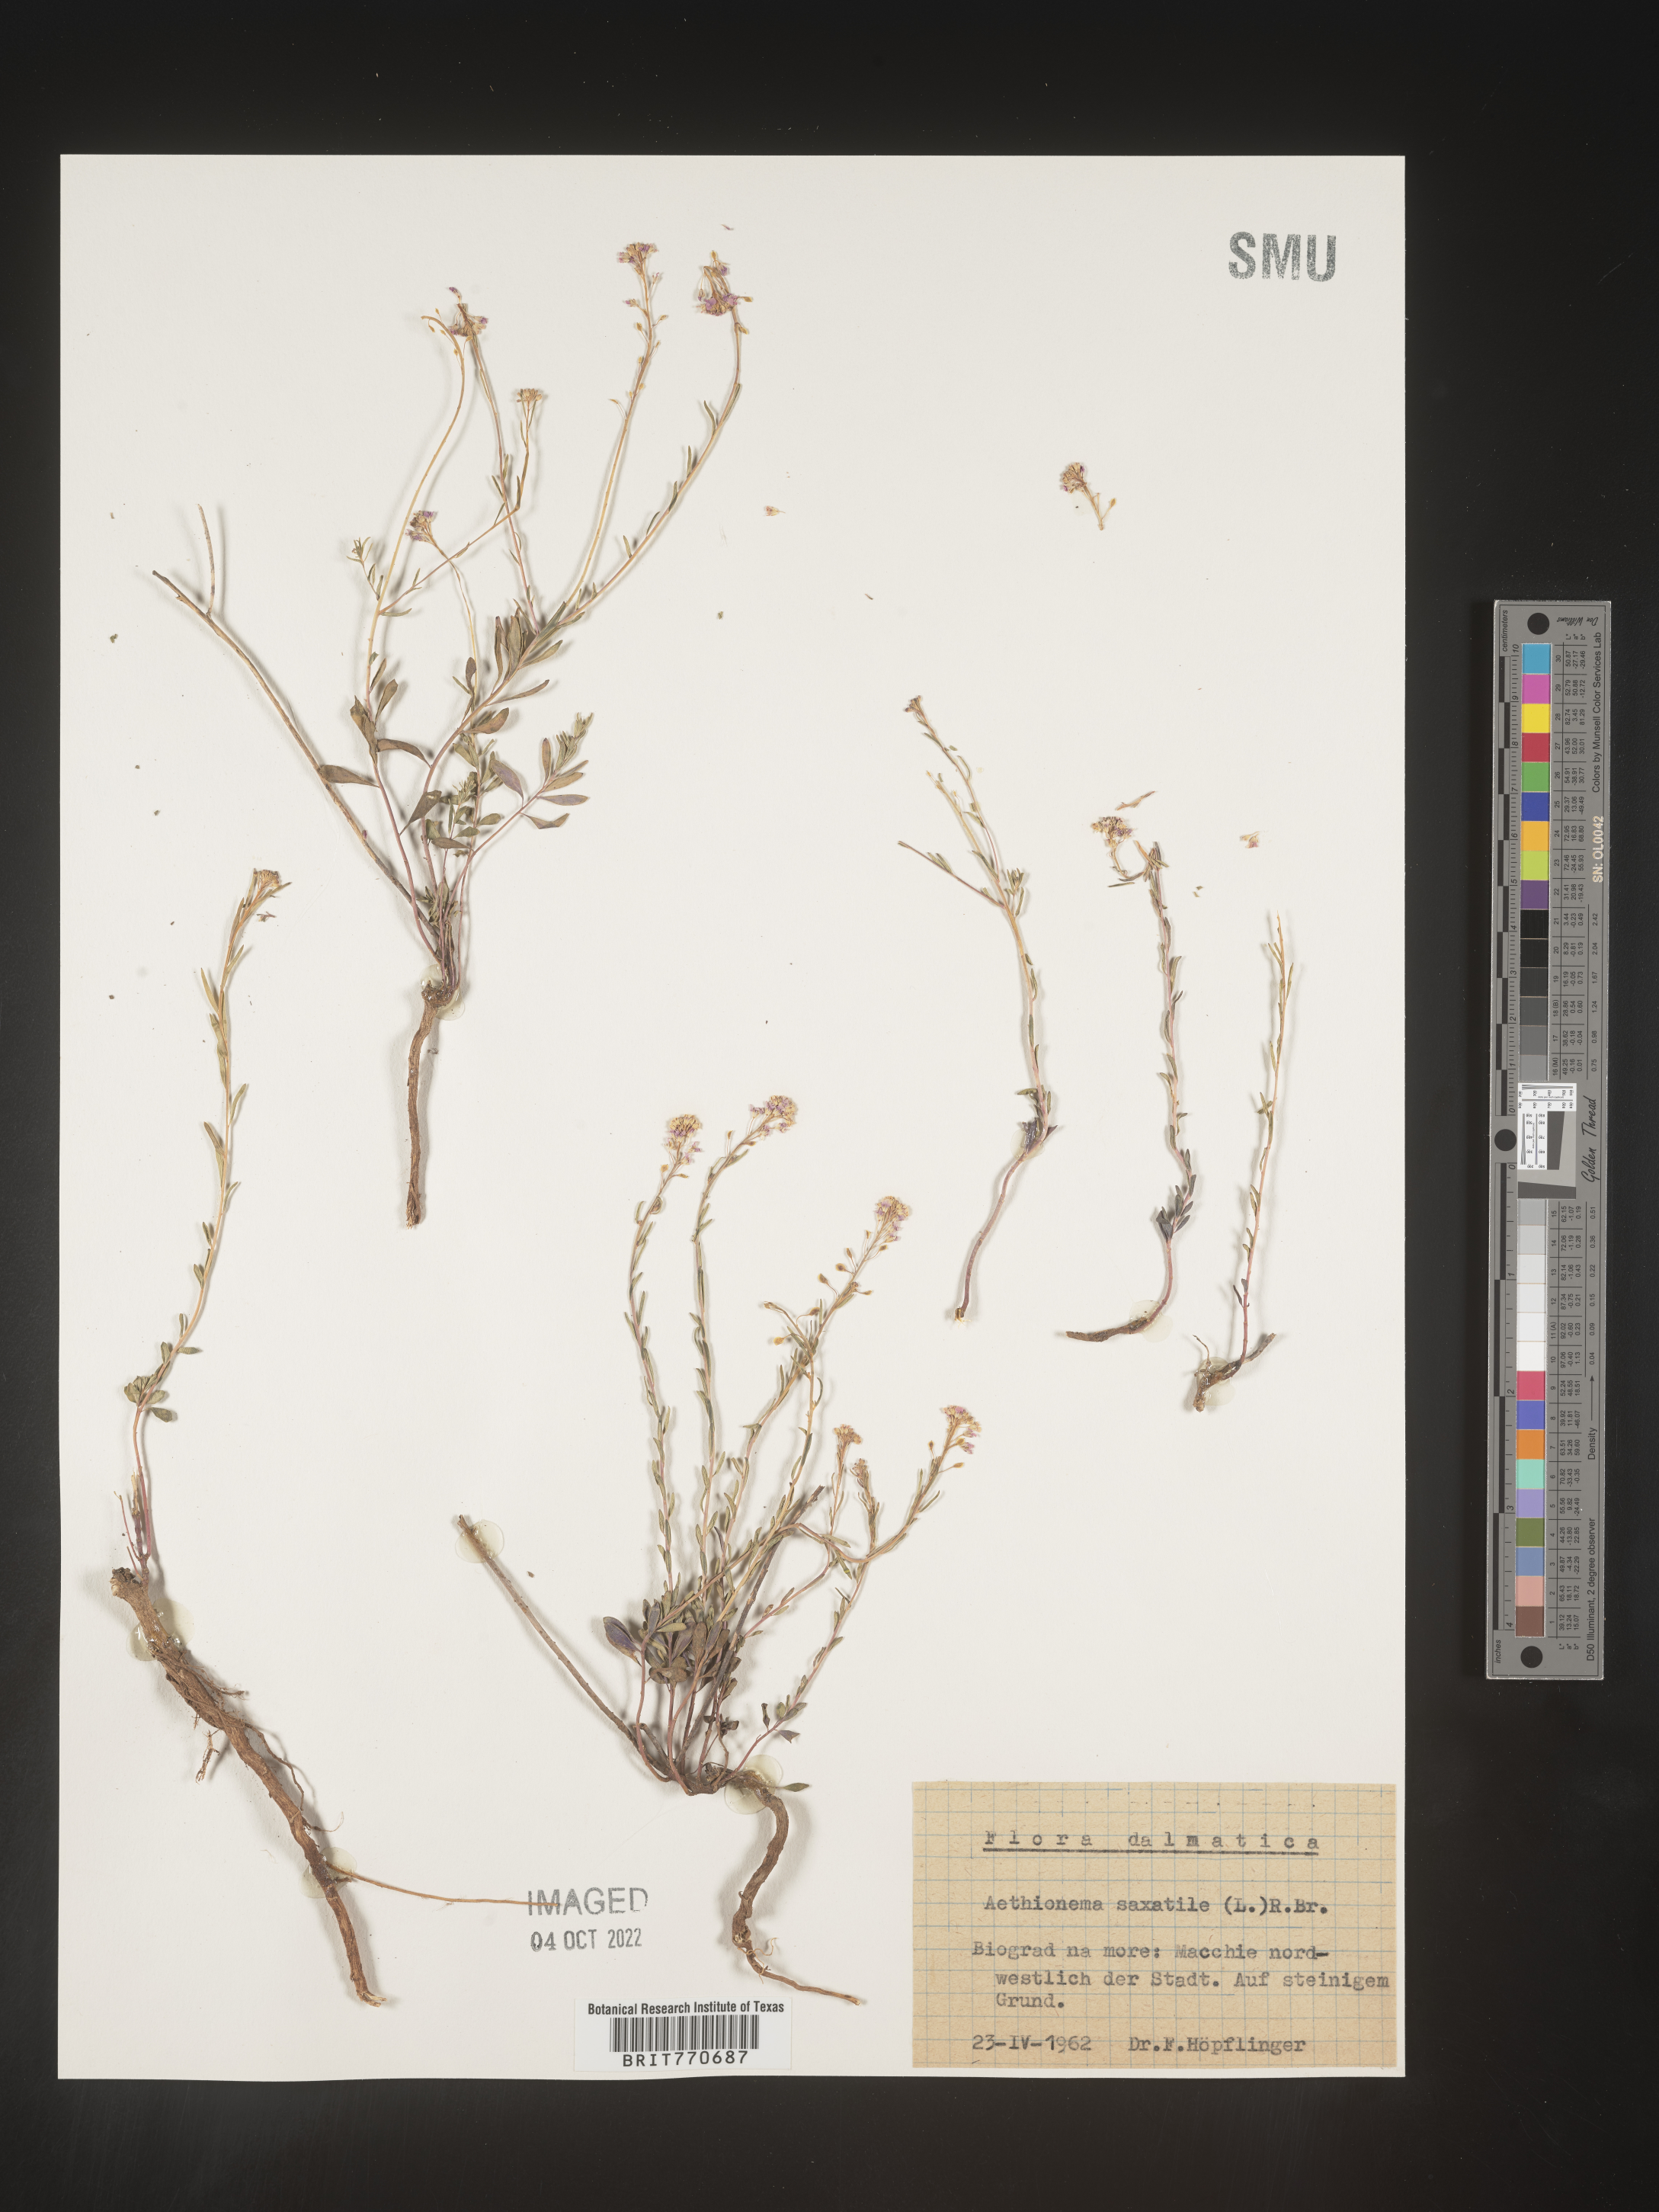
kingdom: Plantae
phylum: Tracheophyta
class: Magnoliopsida
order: Brassicales
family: Brassicaceae
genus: Aethionema
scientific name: Aethionema
